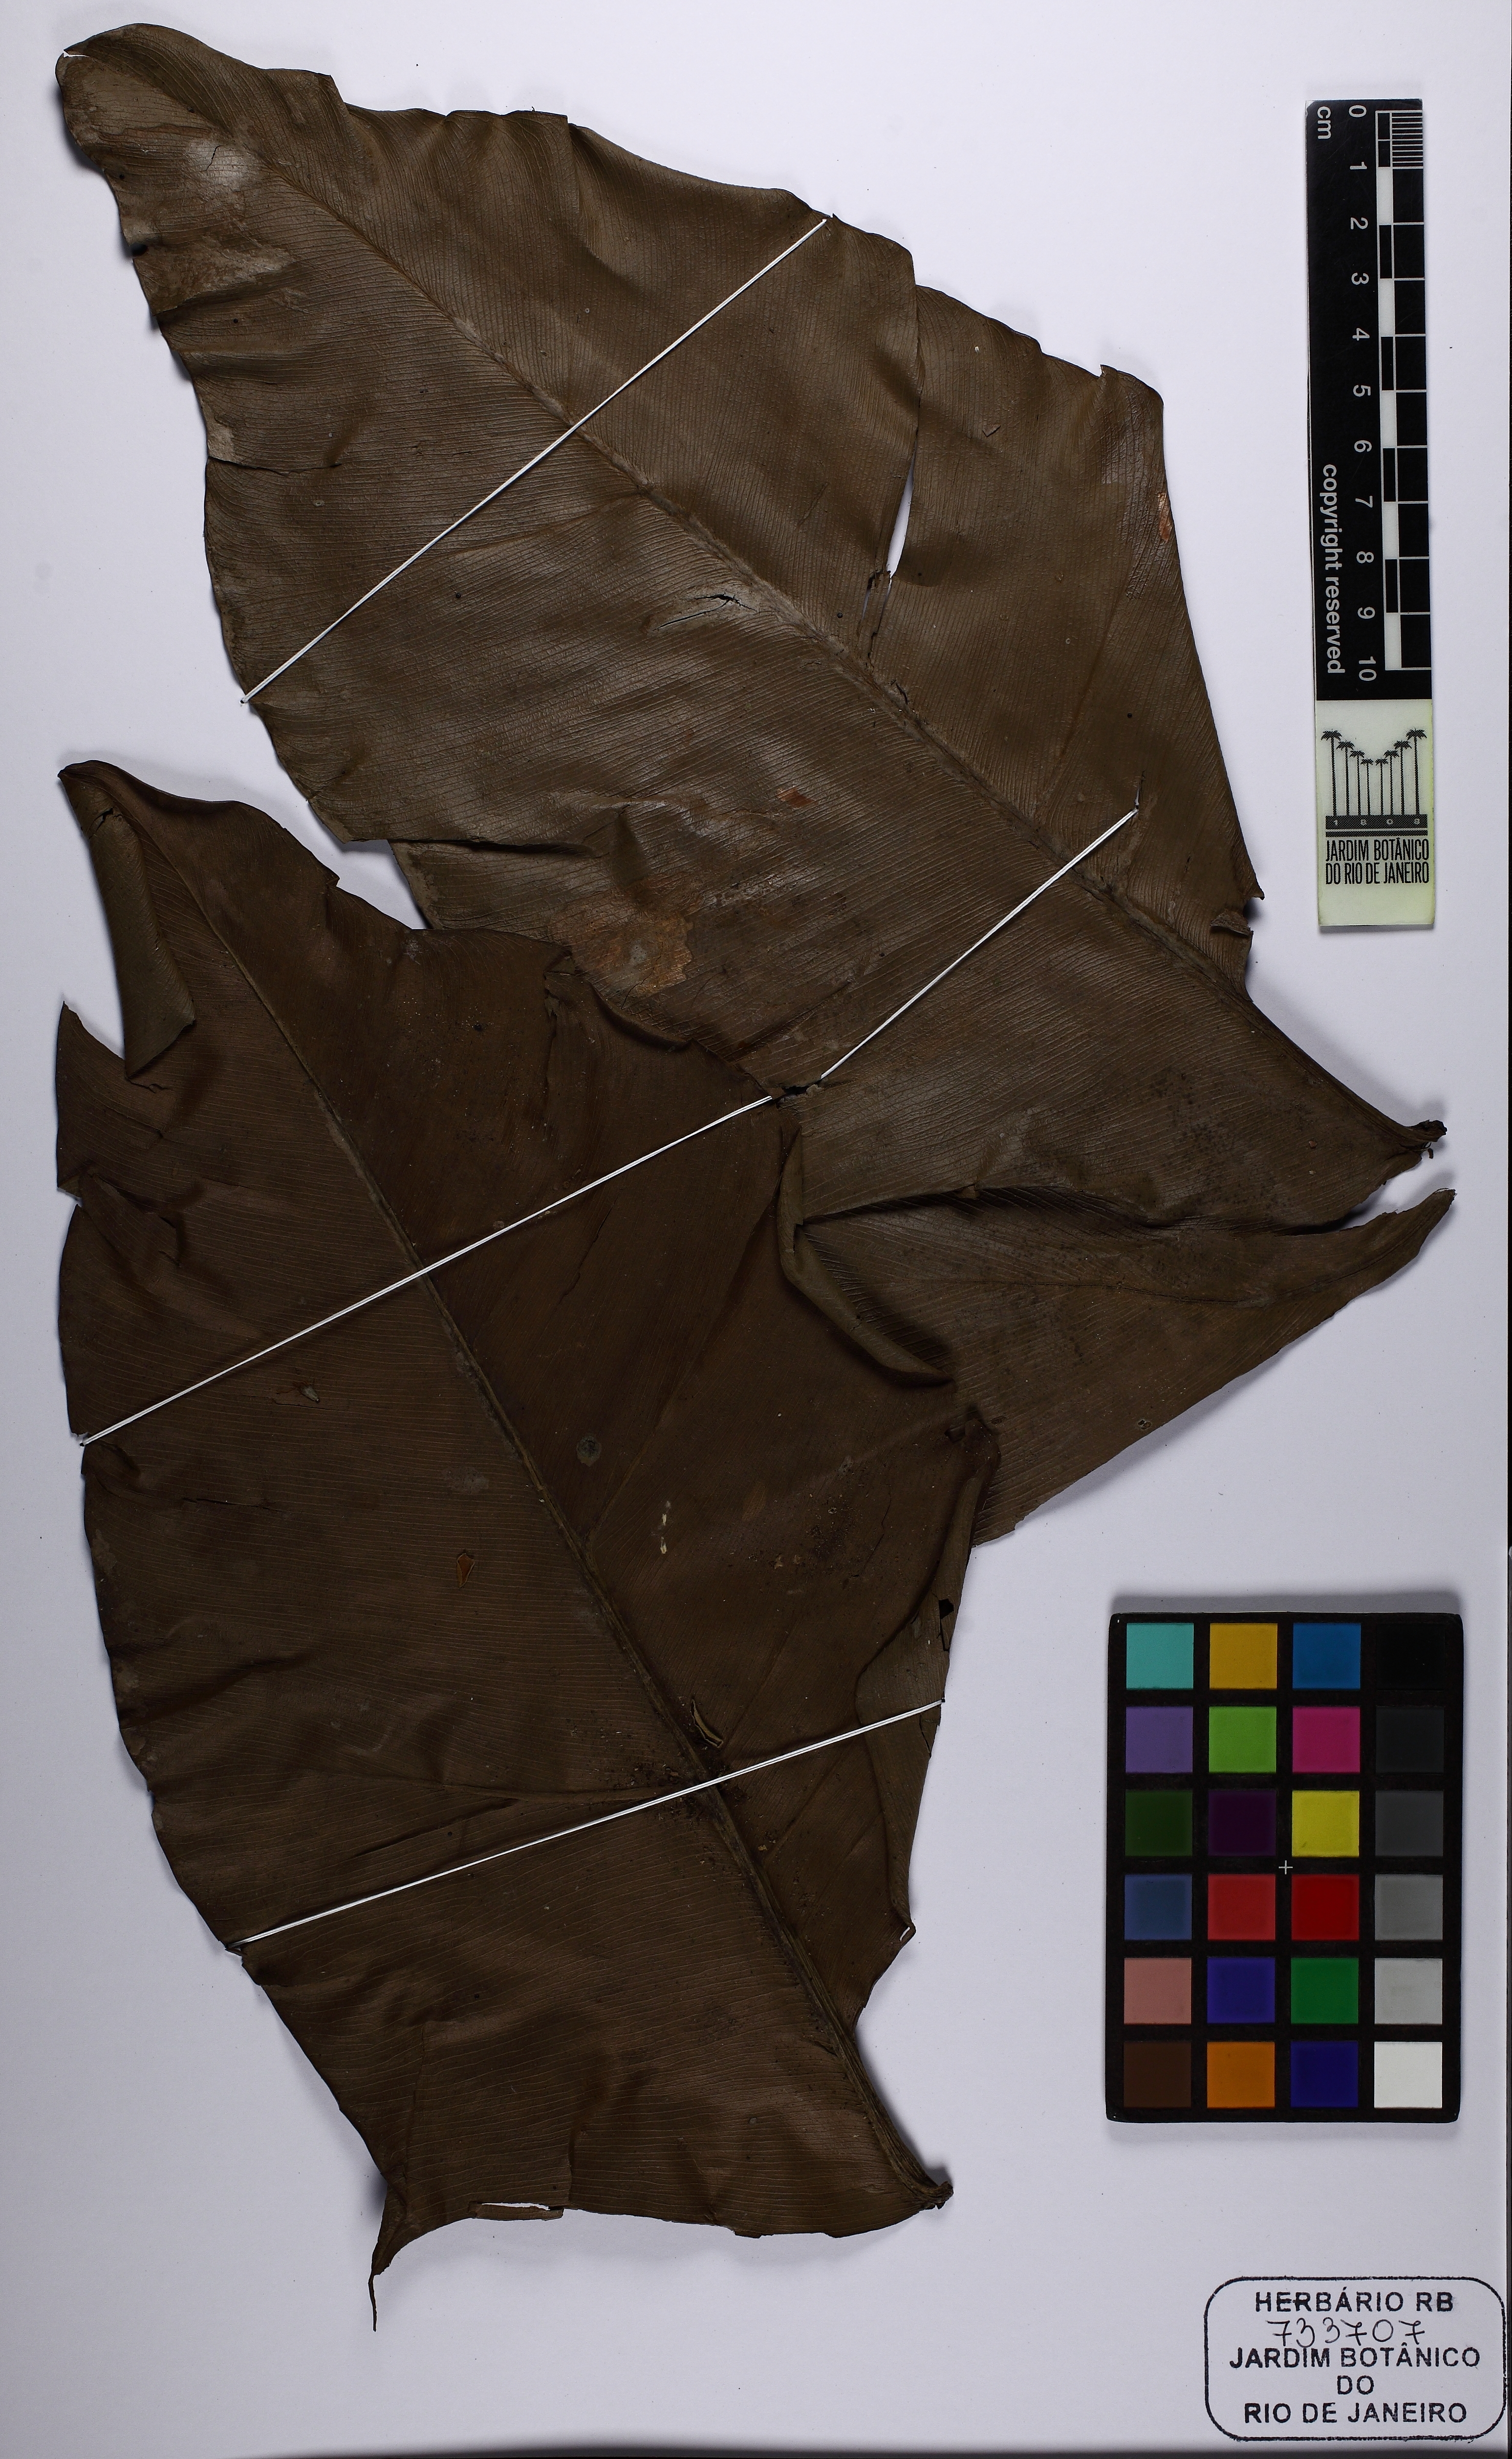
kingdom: Plantae
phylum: Tracheophyta
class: Liliopsida
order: Alismatales
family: Araceae
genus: Thaumatophyllum
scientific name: Thaumatophyllum stenolobum
